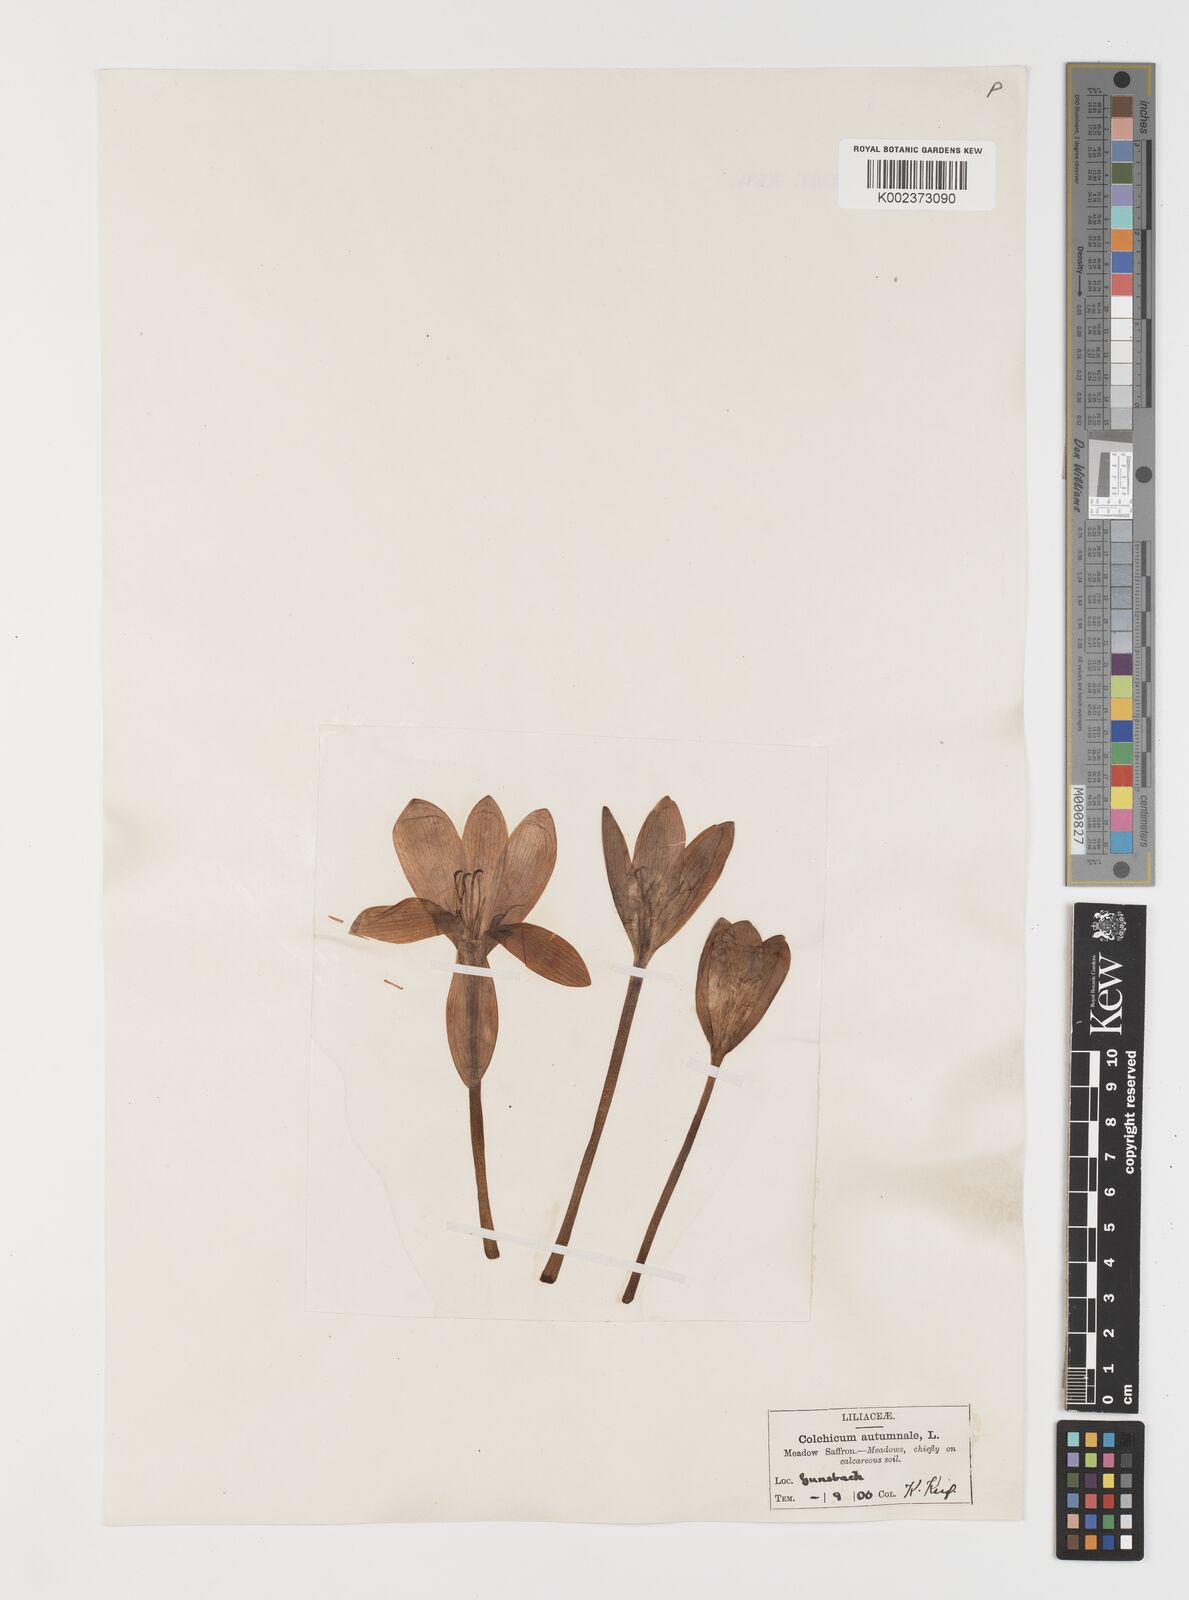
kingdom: Plantae
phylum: Tracheophyta
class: Liliopsida
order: Liliales
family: Colchicaceae
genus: Colchicum
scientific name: Colchicum autumnale
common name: Autumn crocus
